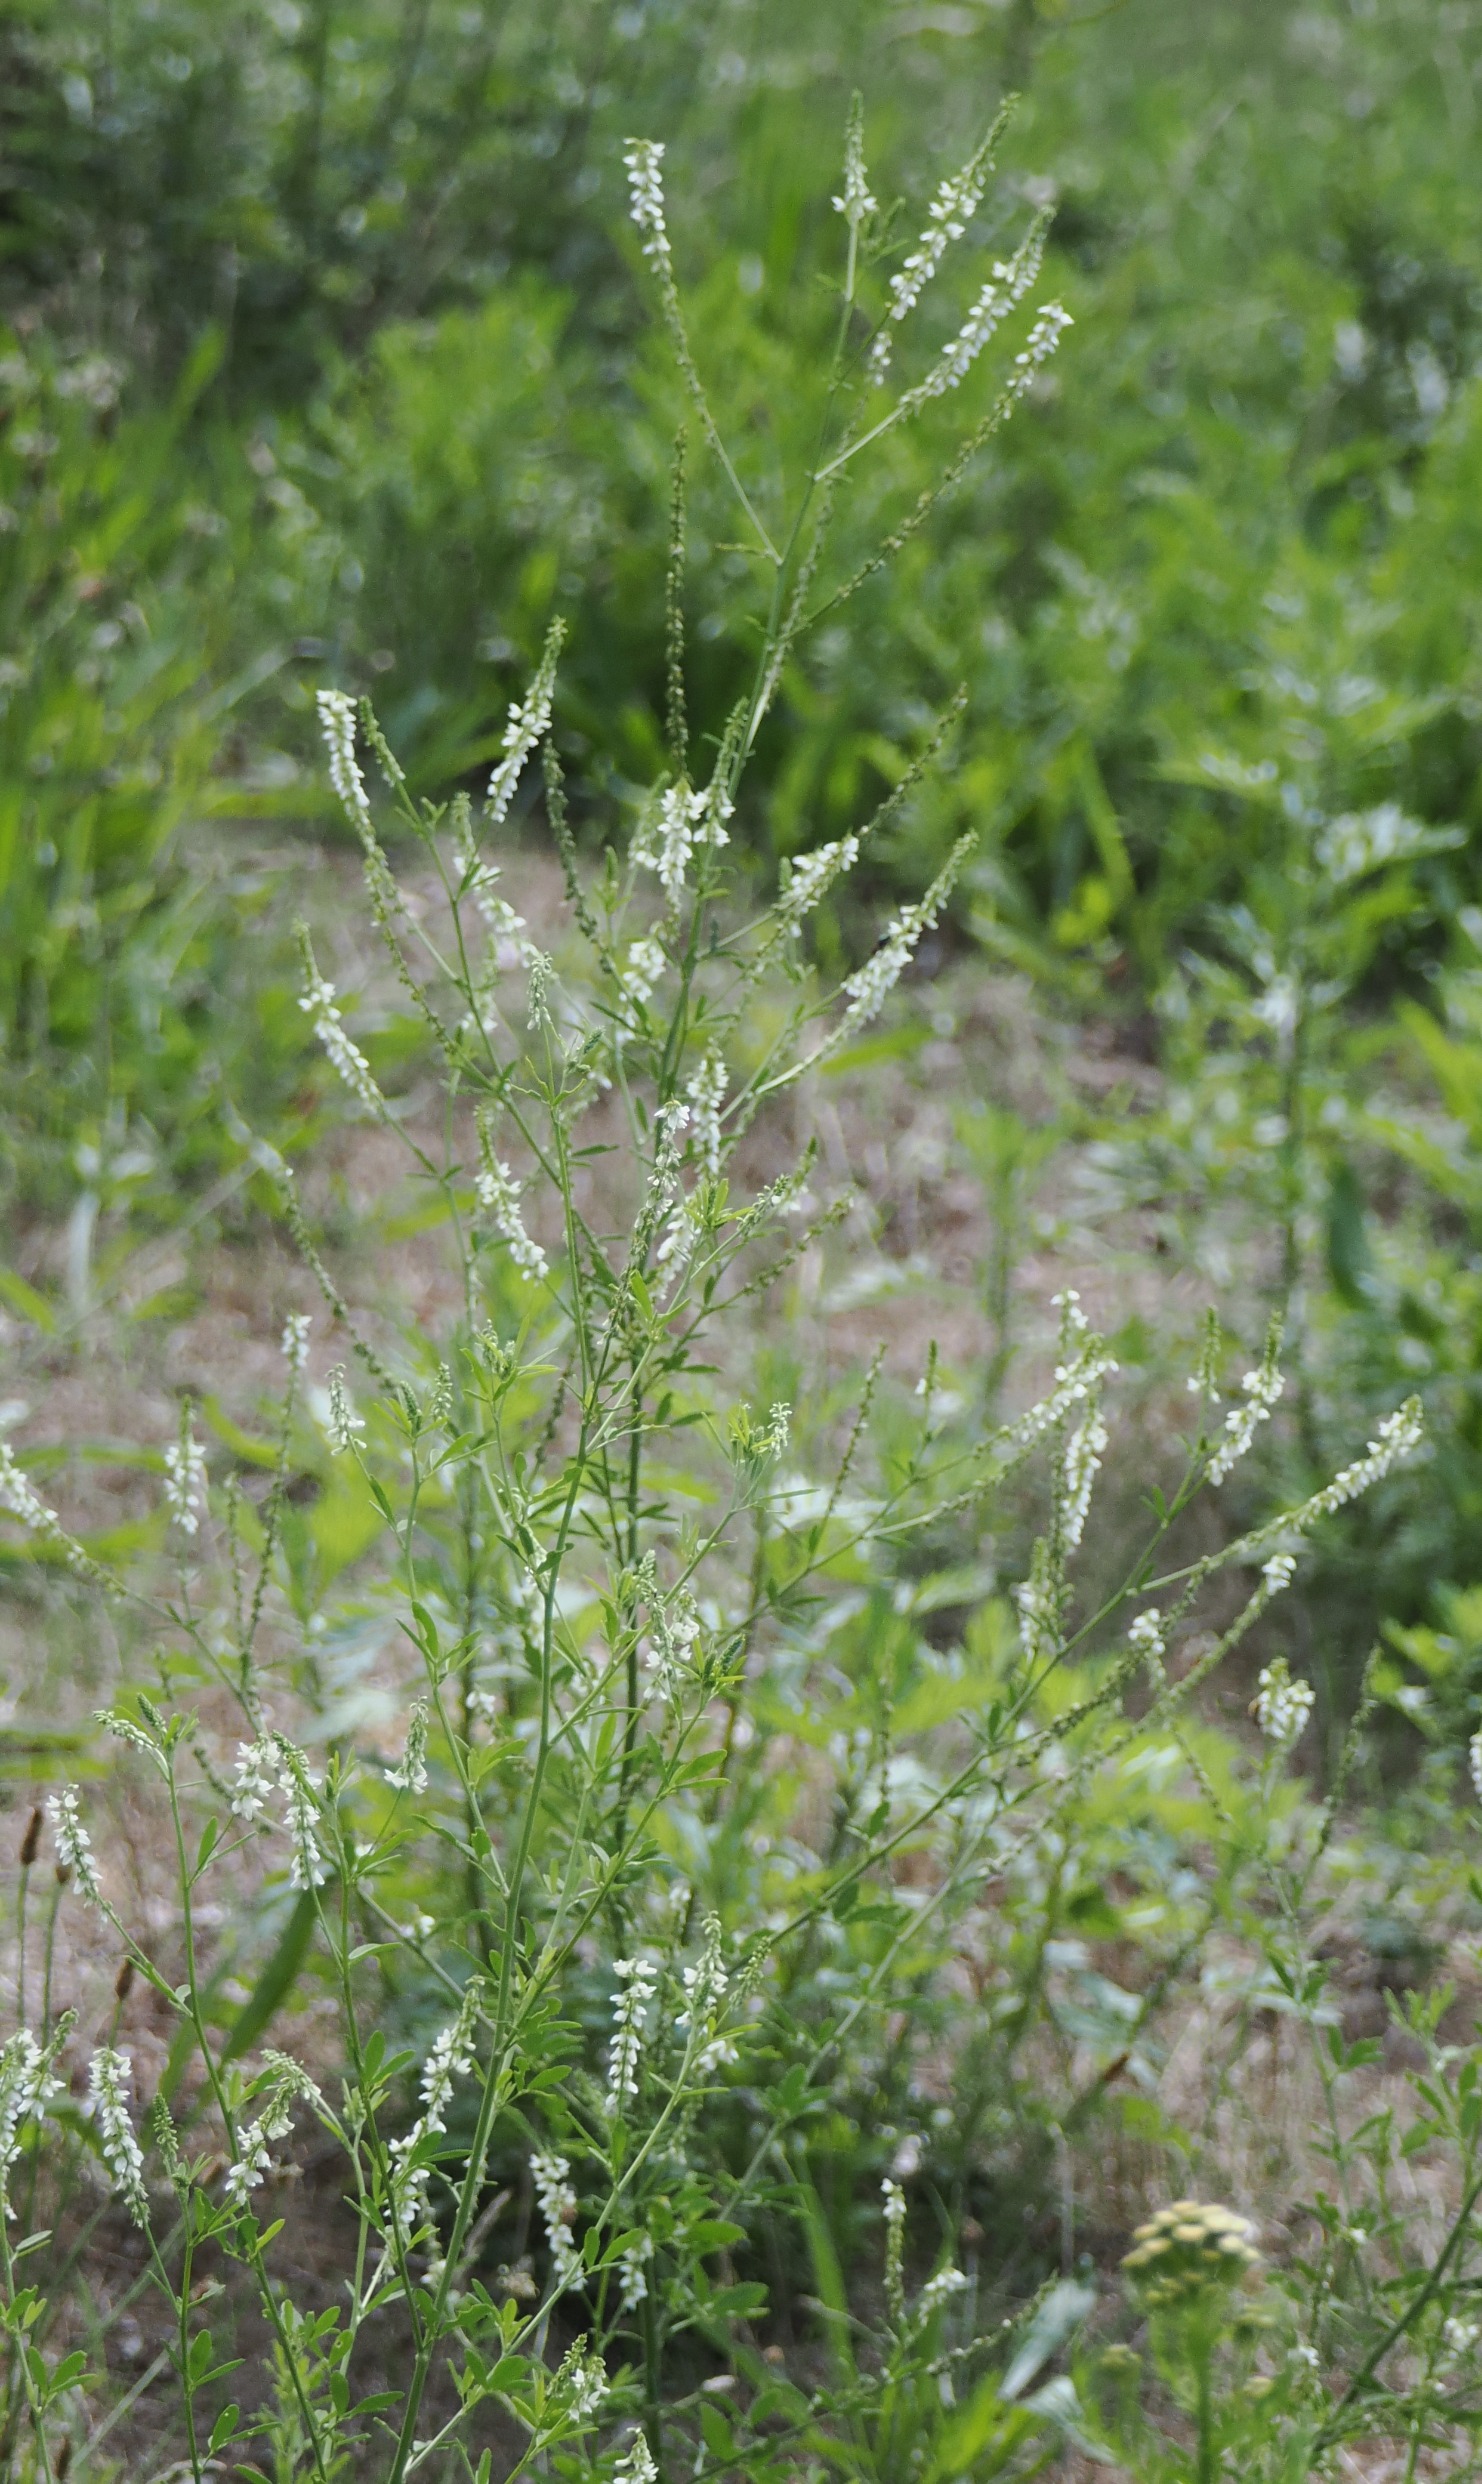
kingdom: Plantae
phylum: Tracheophyta
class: Magnoliopsida
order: Fabales
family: Fabaceae
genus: Melilotus
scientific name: Melilotus albus
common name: Hvid stenkløver
